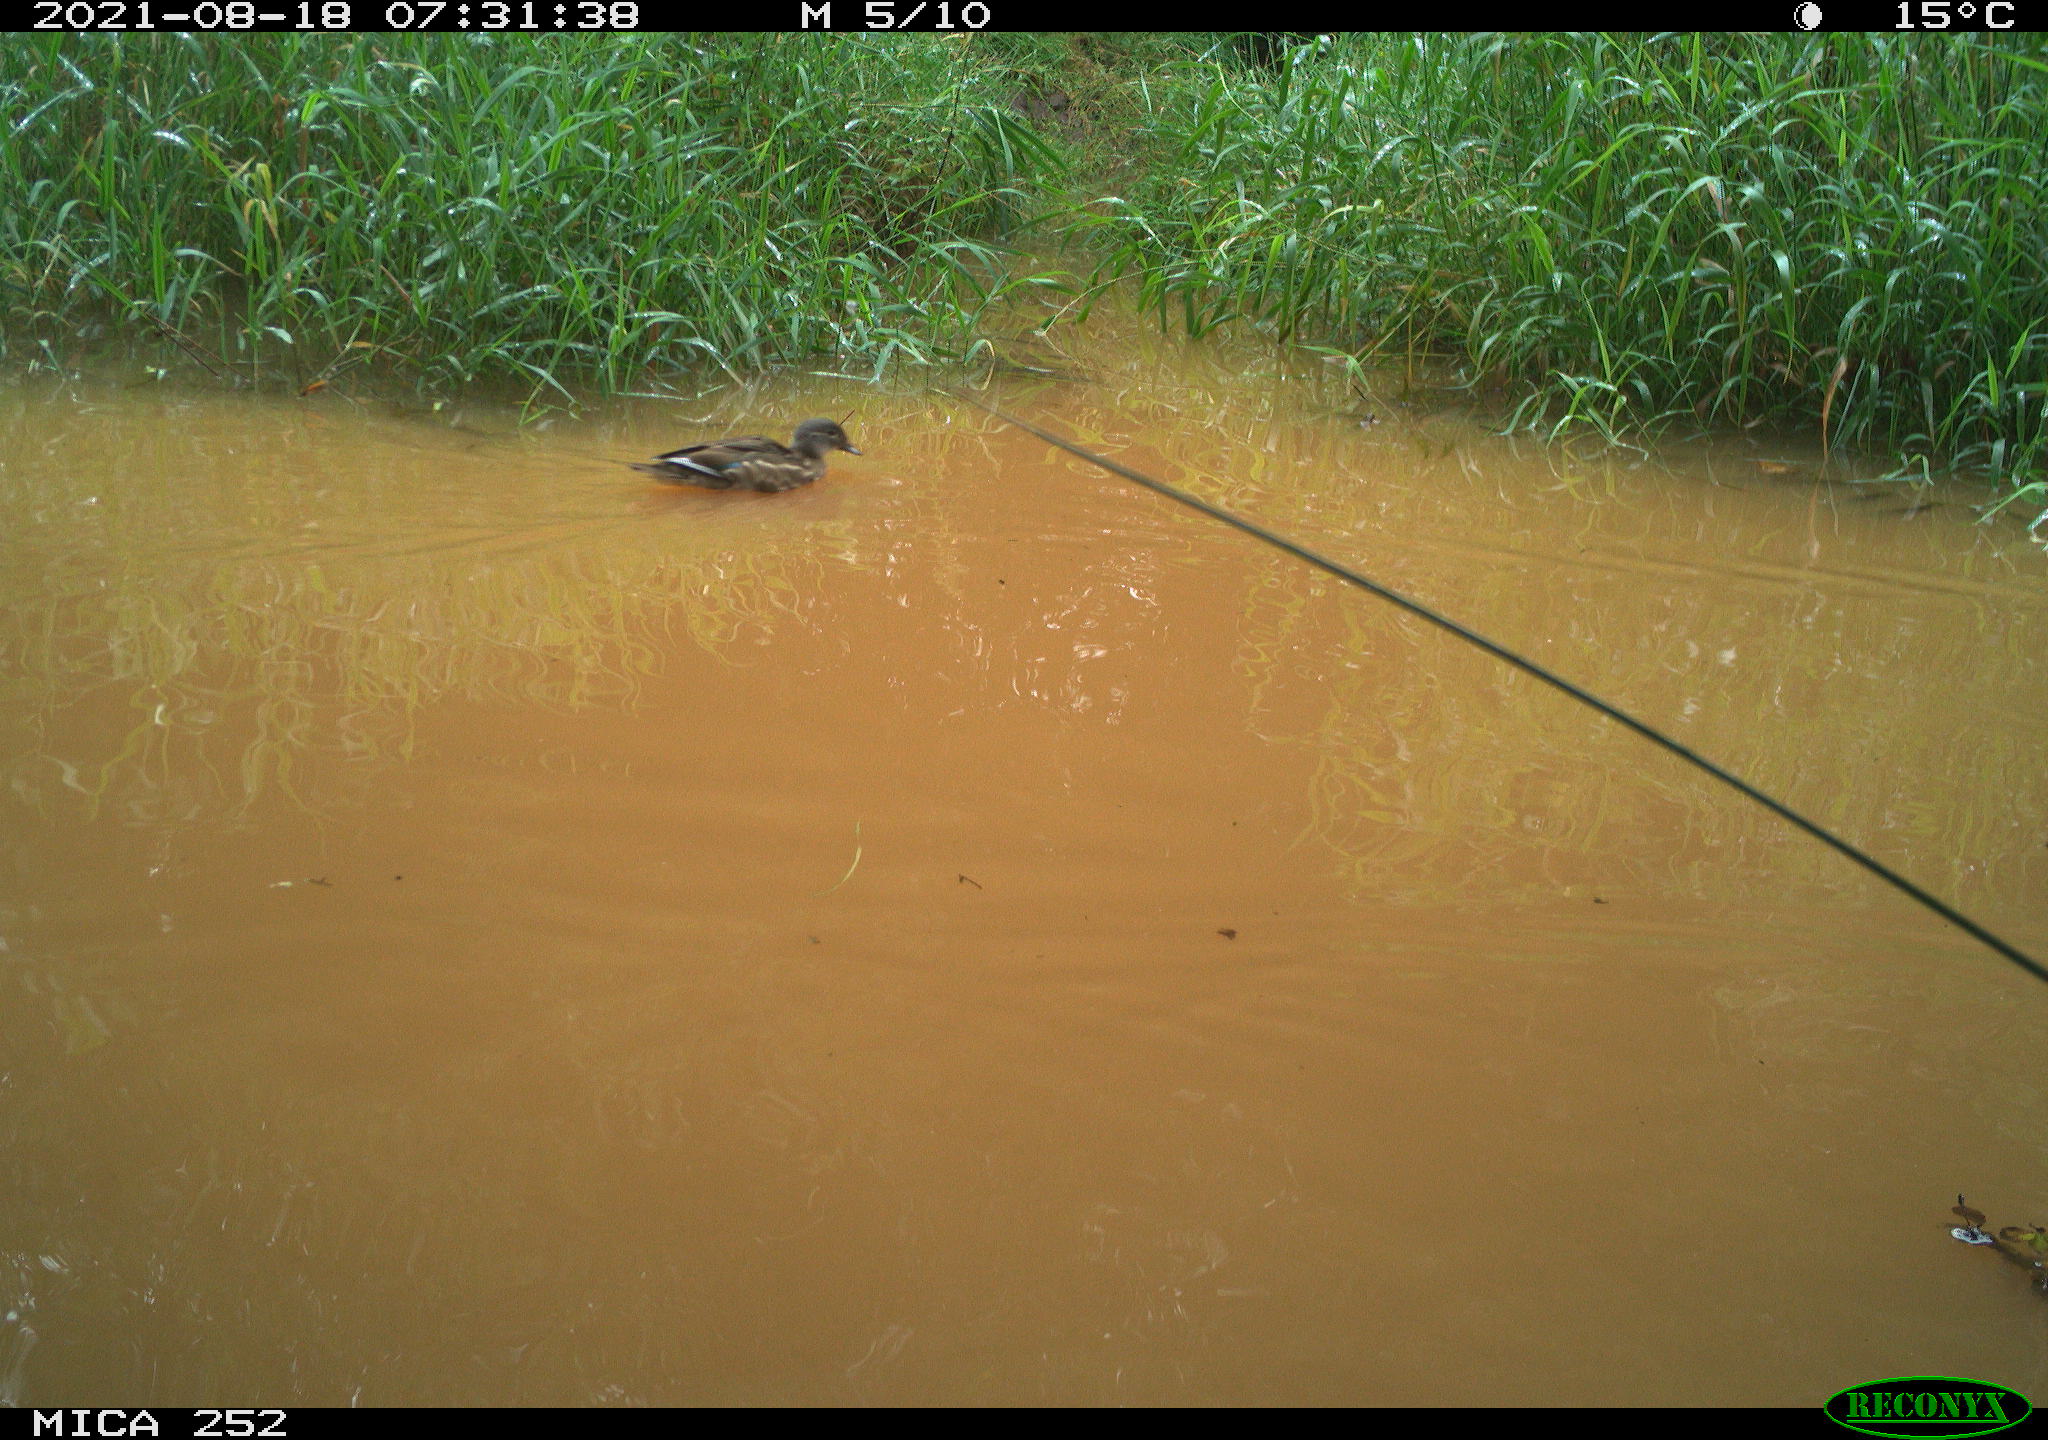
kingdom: Animalia
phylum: Chordata
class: Aves
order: Gruiformes
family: Rallidae
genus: Gallinula
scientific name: Gallinula chloropus
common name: Common moorhen
